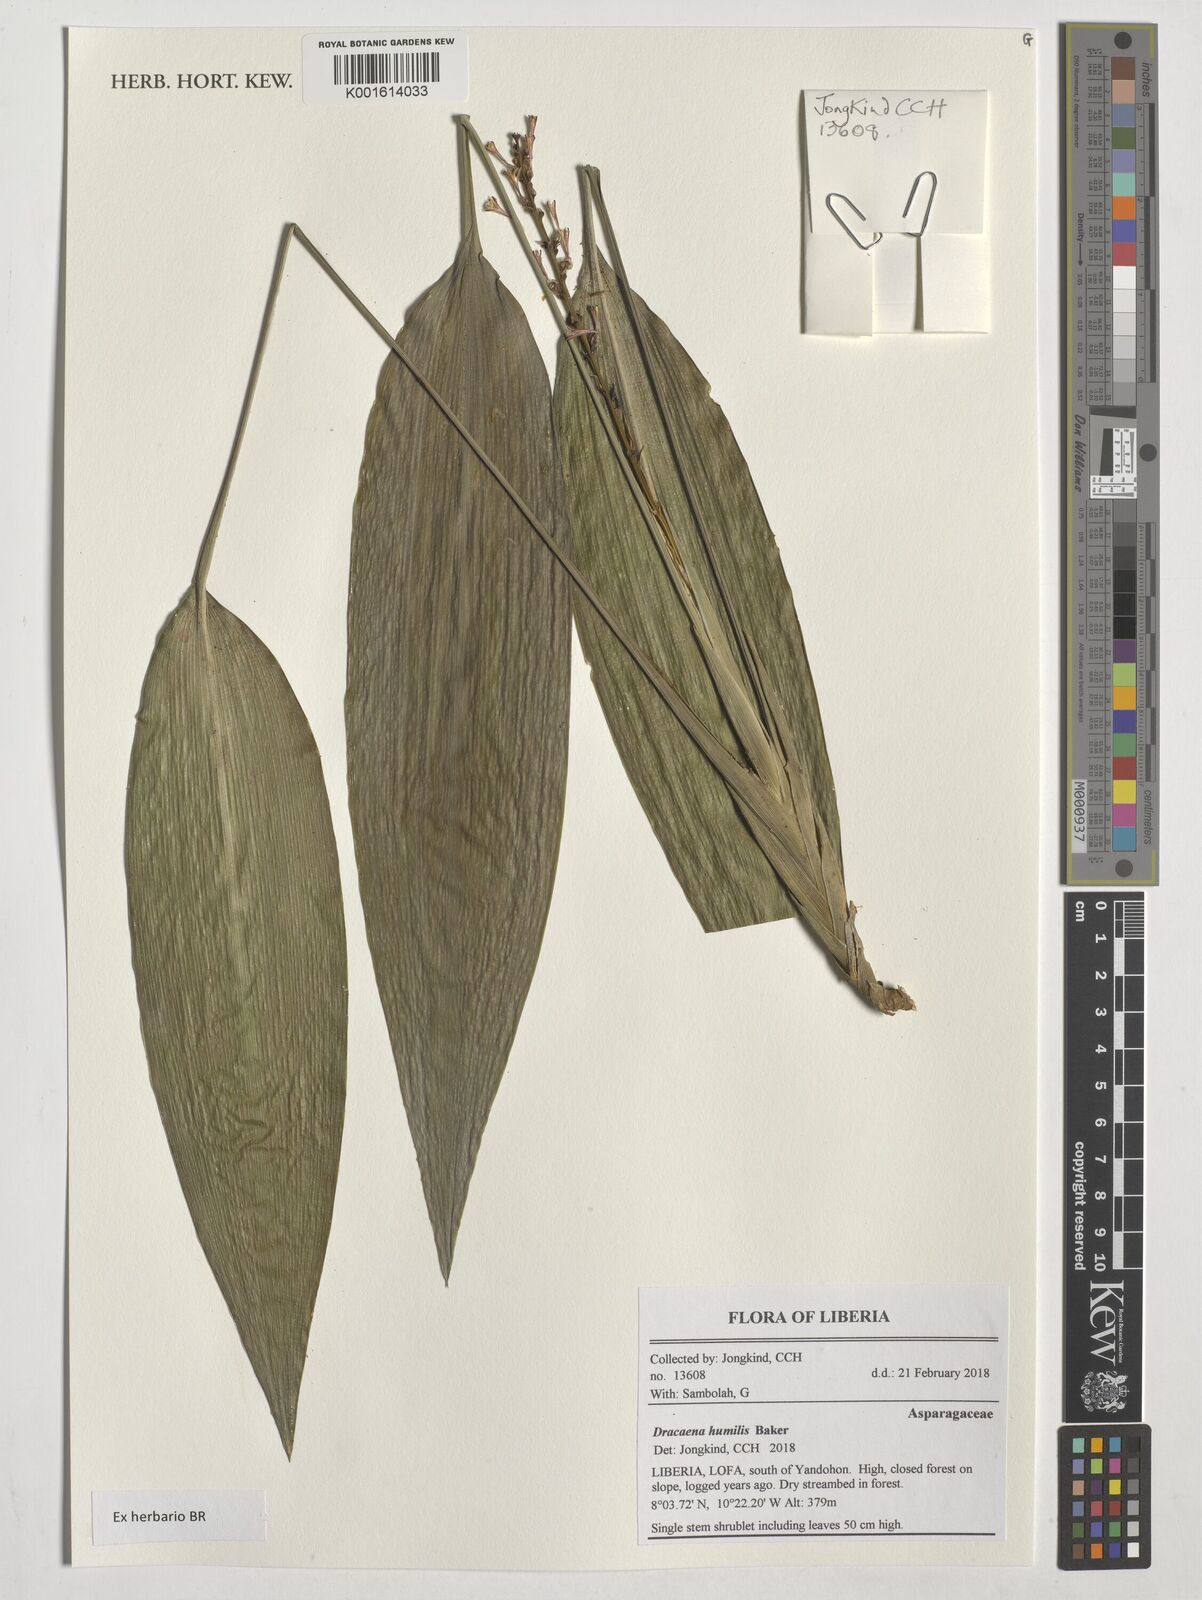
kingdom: Plantae
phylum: Tracheophyta
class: Liliopsida
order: Asparagales
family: Asparagaceae
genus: Dracaena
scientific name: Dracaena aubryana
